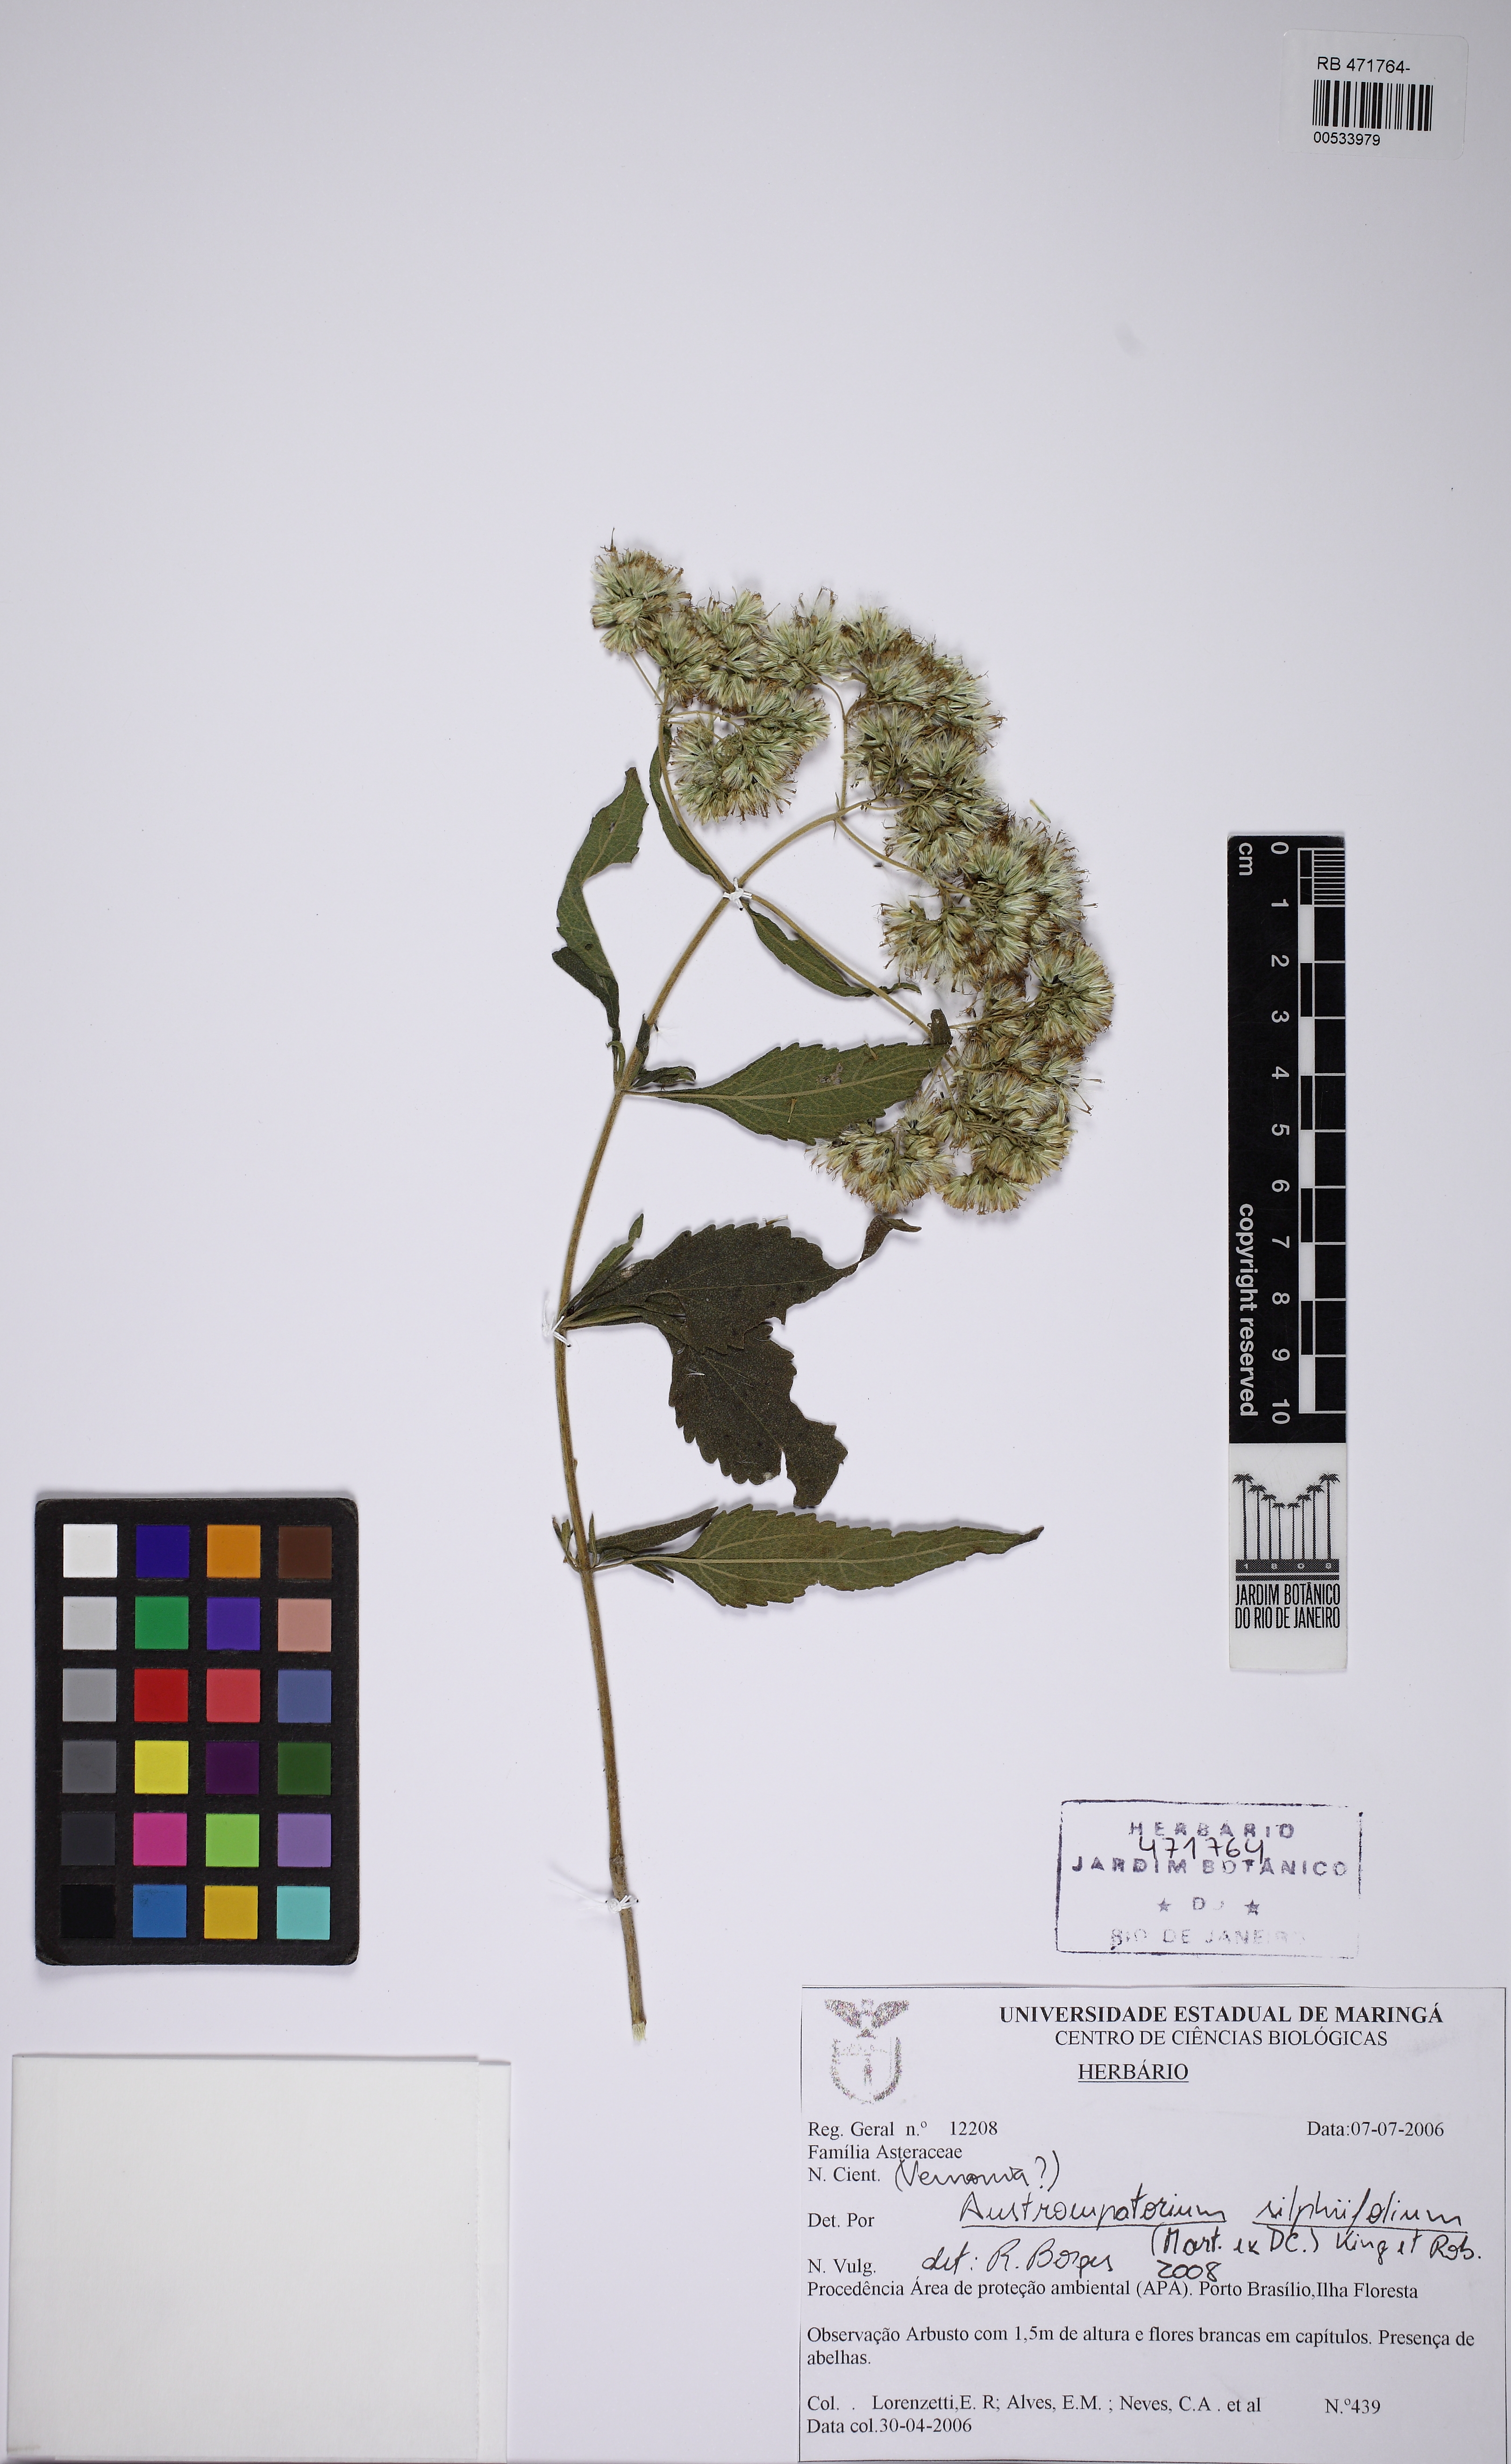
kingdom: Plantae
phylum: Tracheophyta
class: Magnoliopsida
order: Asterales
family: Asteraceae
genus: Austroeupatorium
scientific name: Austroeupatorium silphiifolium
